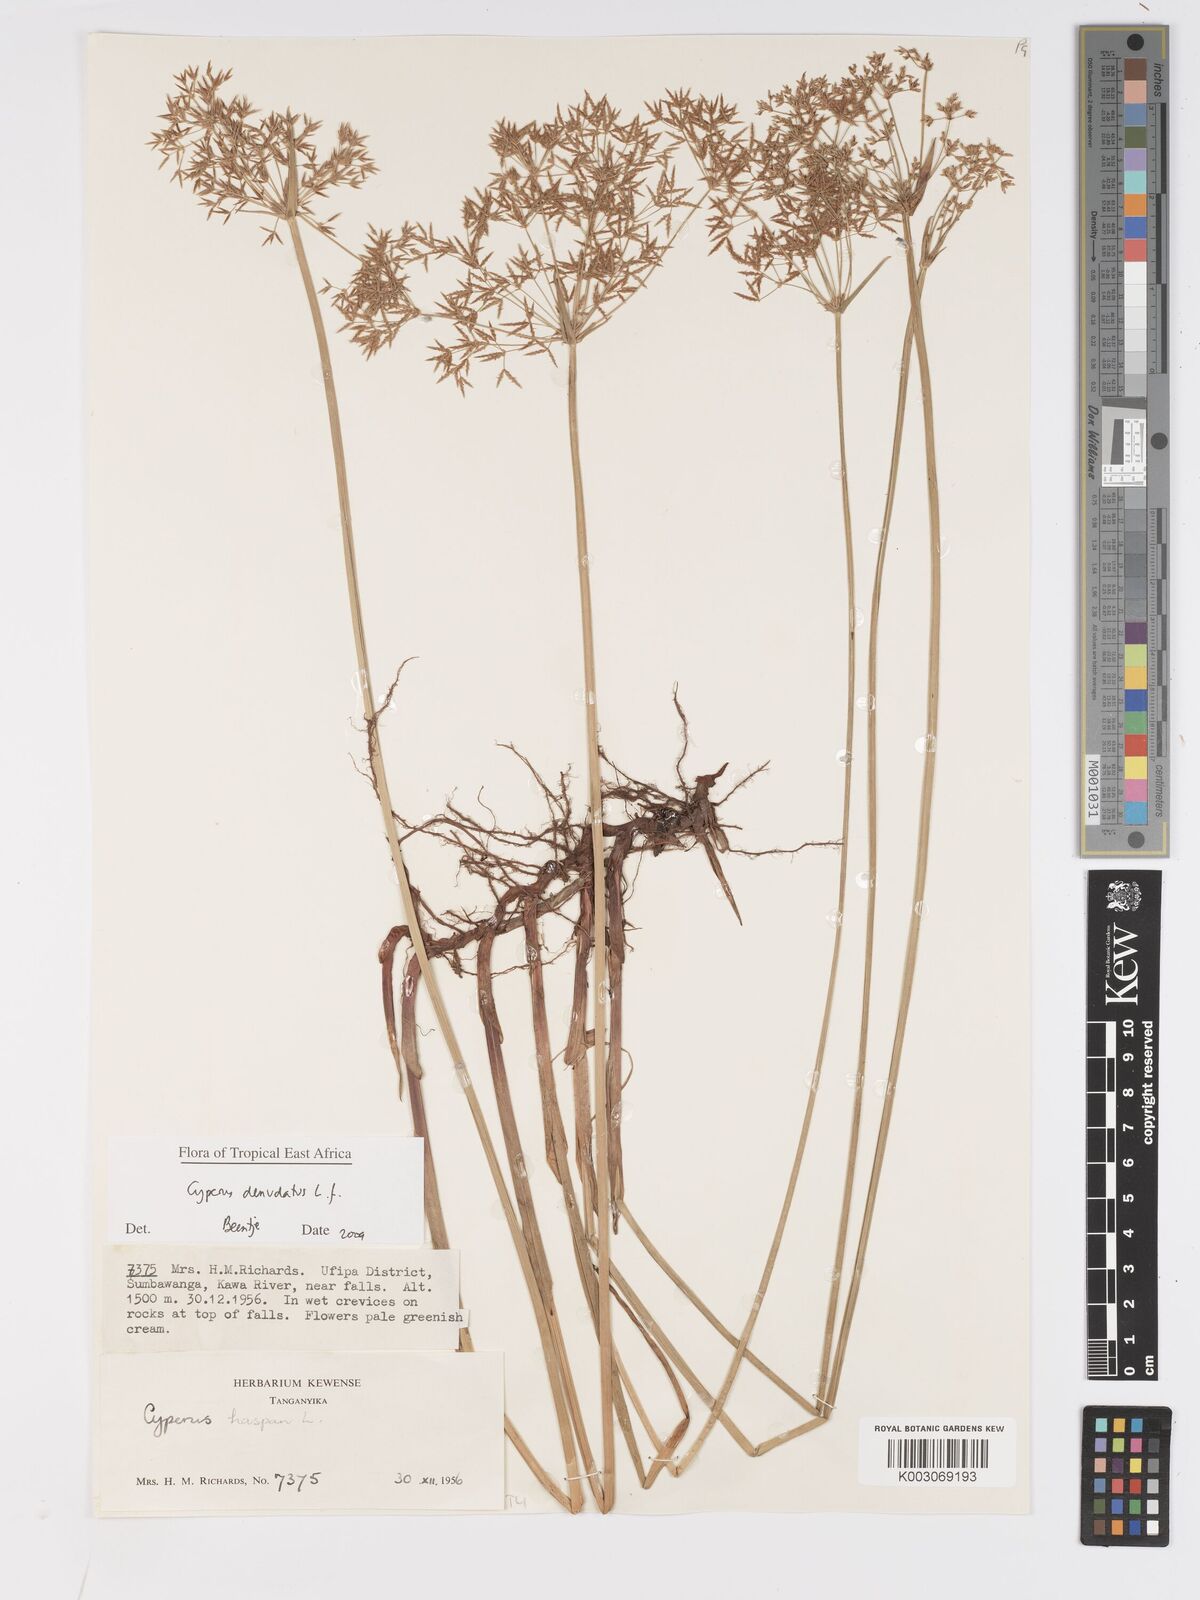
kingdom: Plantae
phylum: Tracheophyta
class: Liliopsida
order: Poales
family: Cyperaceae
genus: Cyperus
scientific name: Cyperus denudatus
